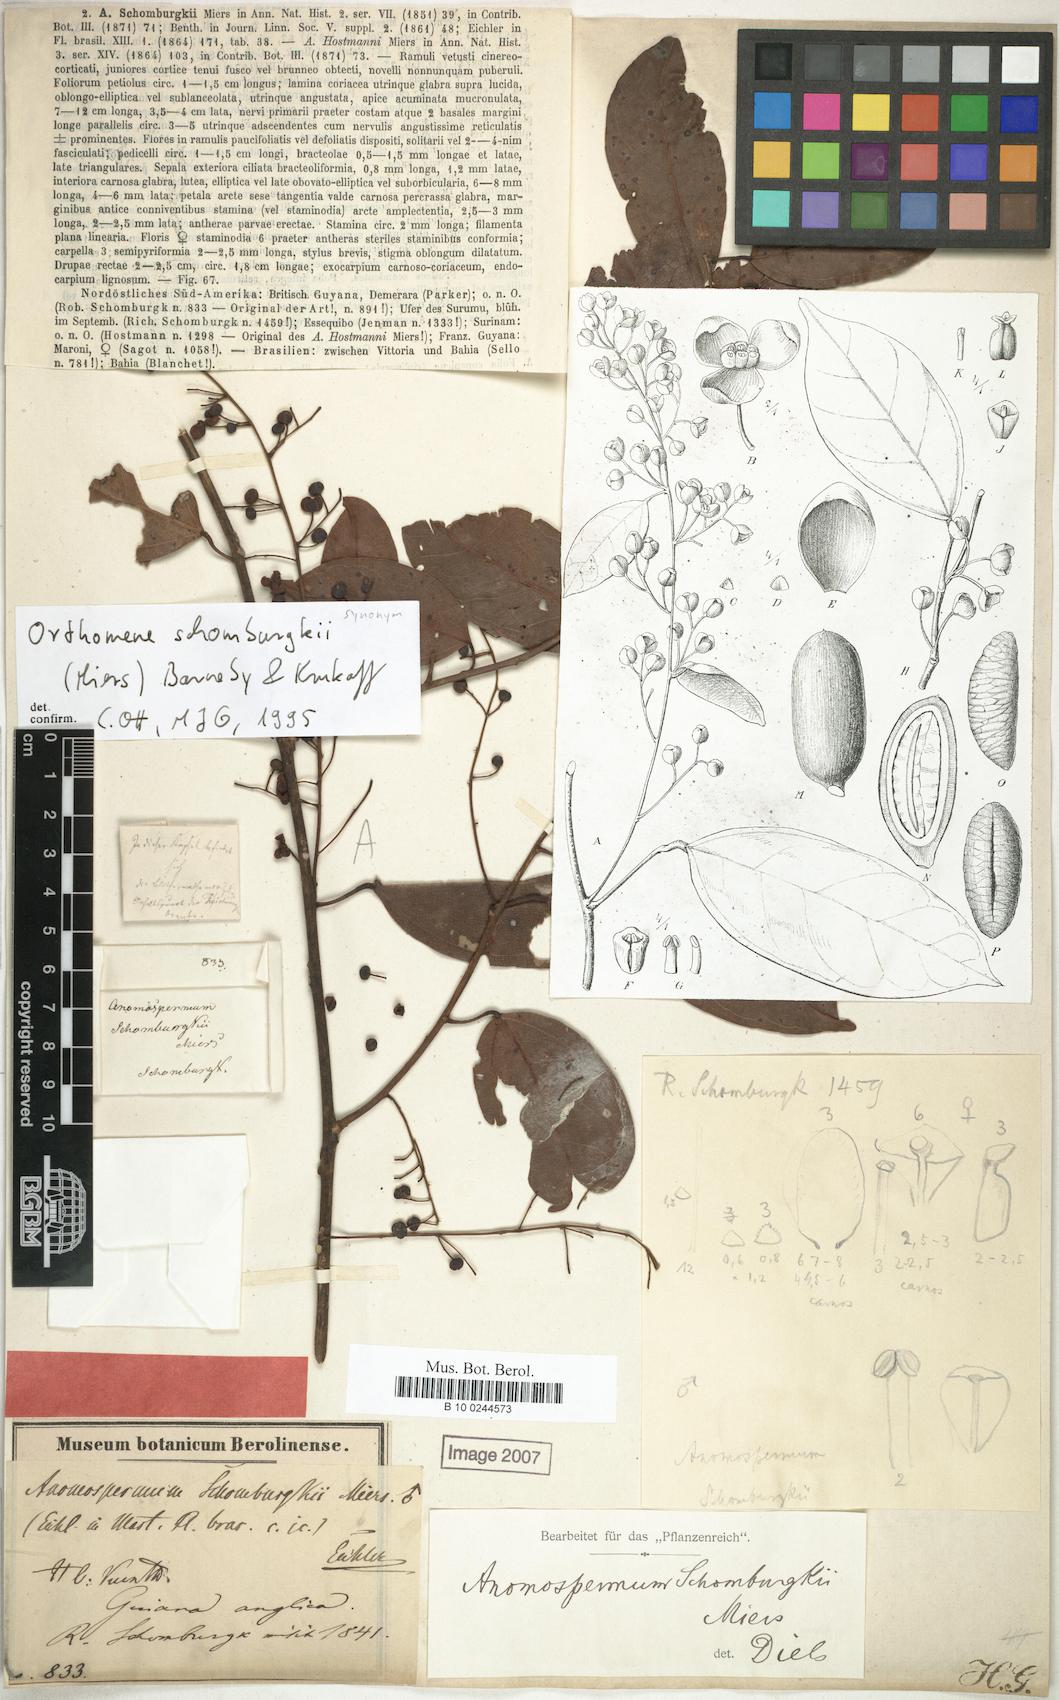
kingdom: Plantae
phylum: Tracheophyta
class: Magnoliopsida
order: Ranunculales
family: Menispermaceae
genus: Orthomene
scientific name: Orthomene schomburgkii
